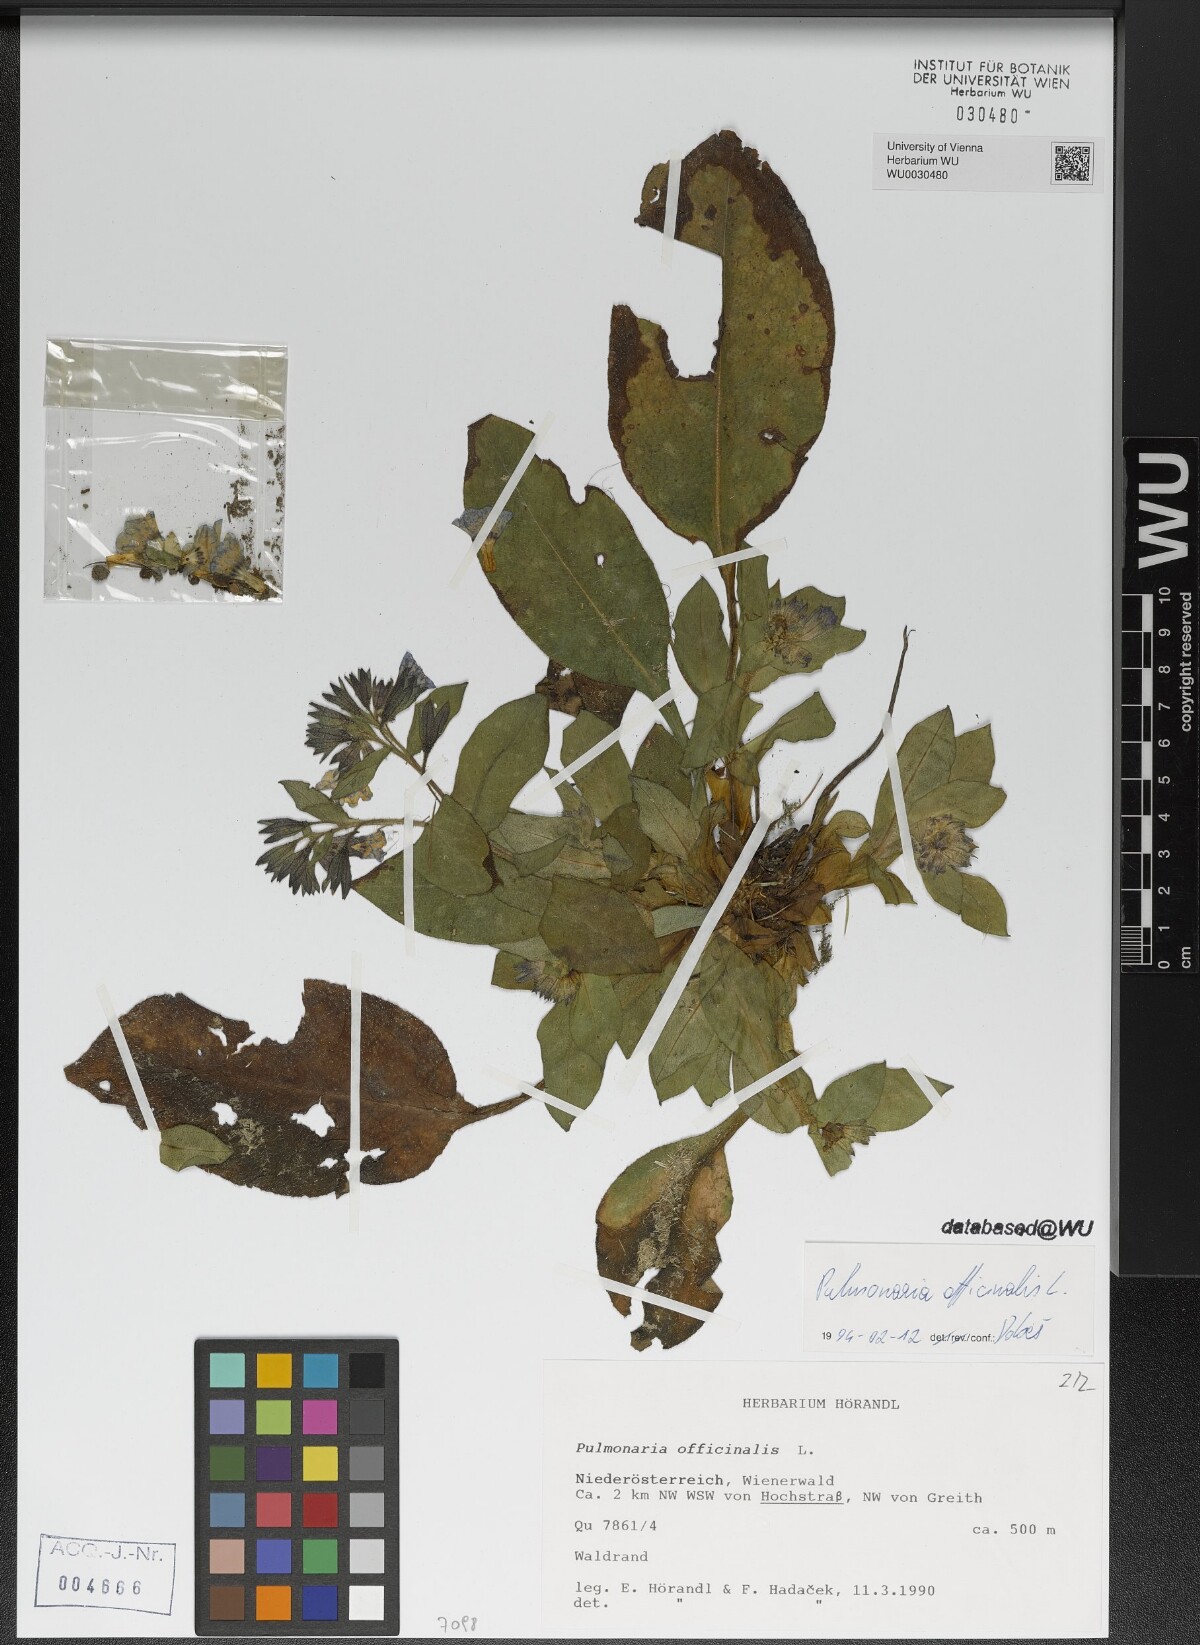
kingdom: Plantae
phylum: Tracheophyta
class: Magnoliopsida
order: Boraginales
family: Boraginaceae
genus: Pulmonaria
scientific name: Pulmonaria officinalis
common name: Lungwort
